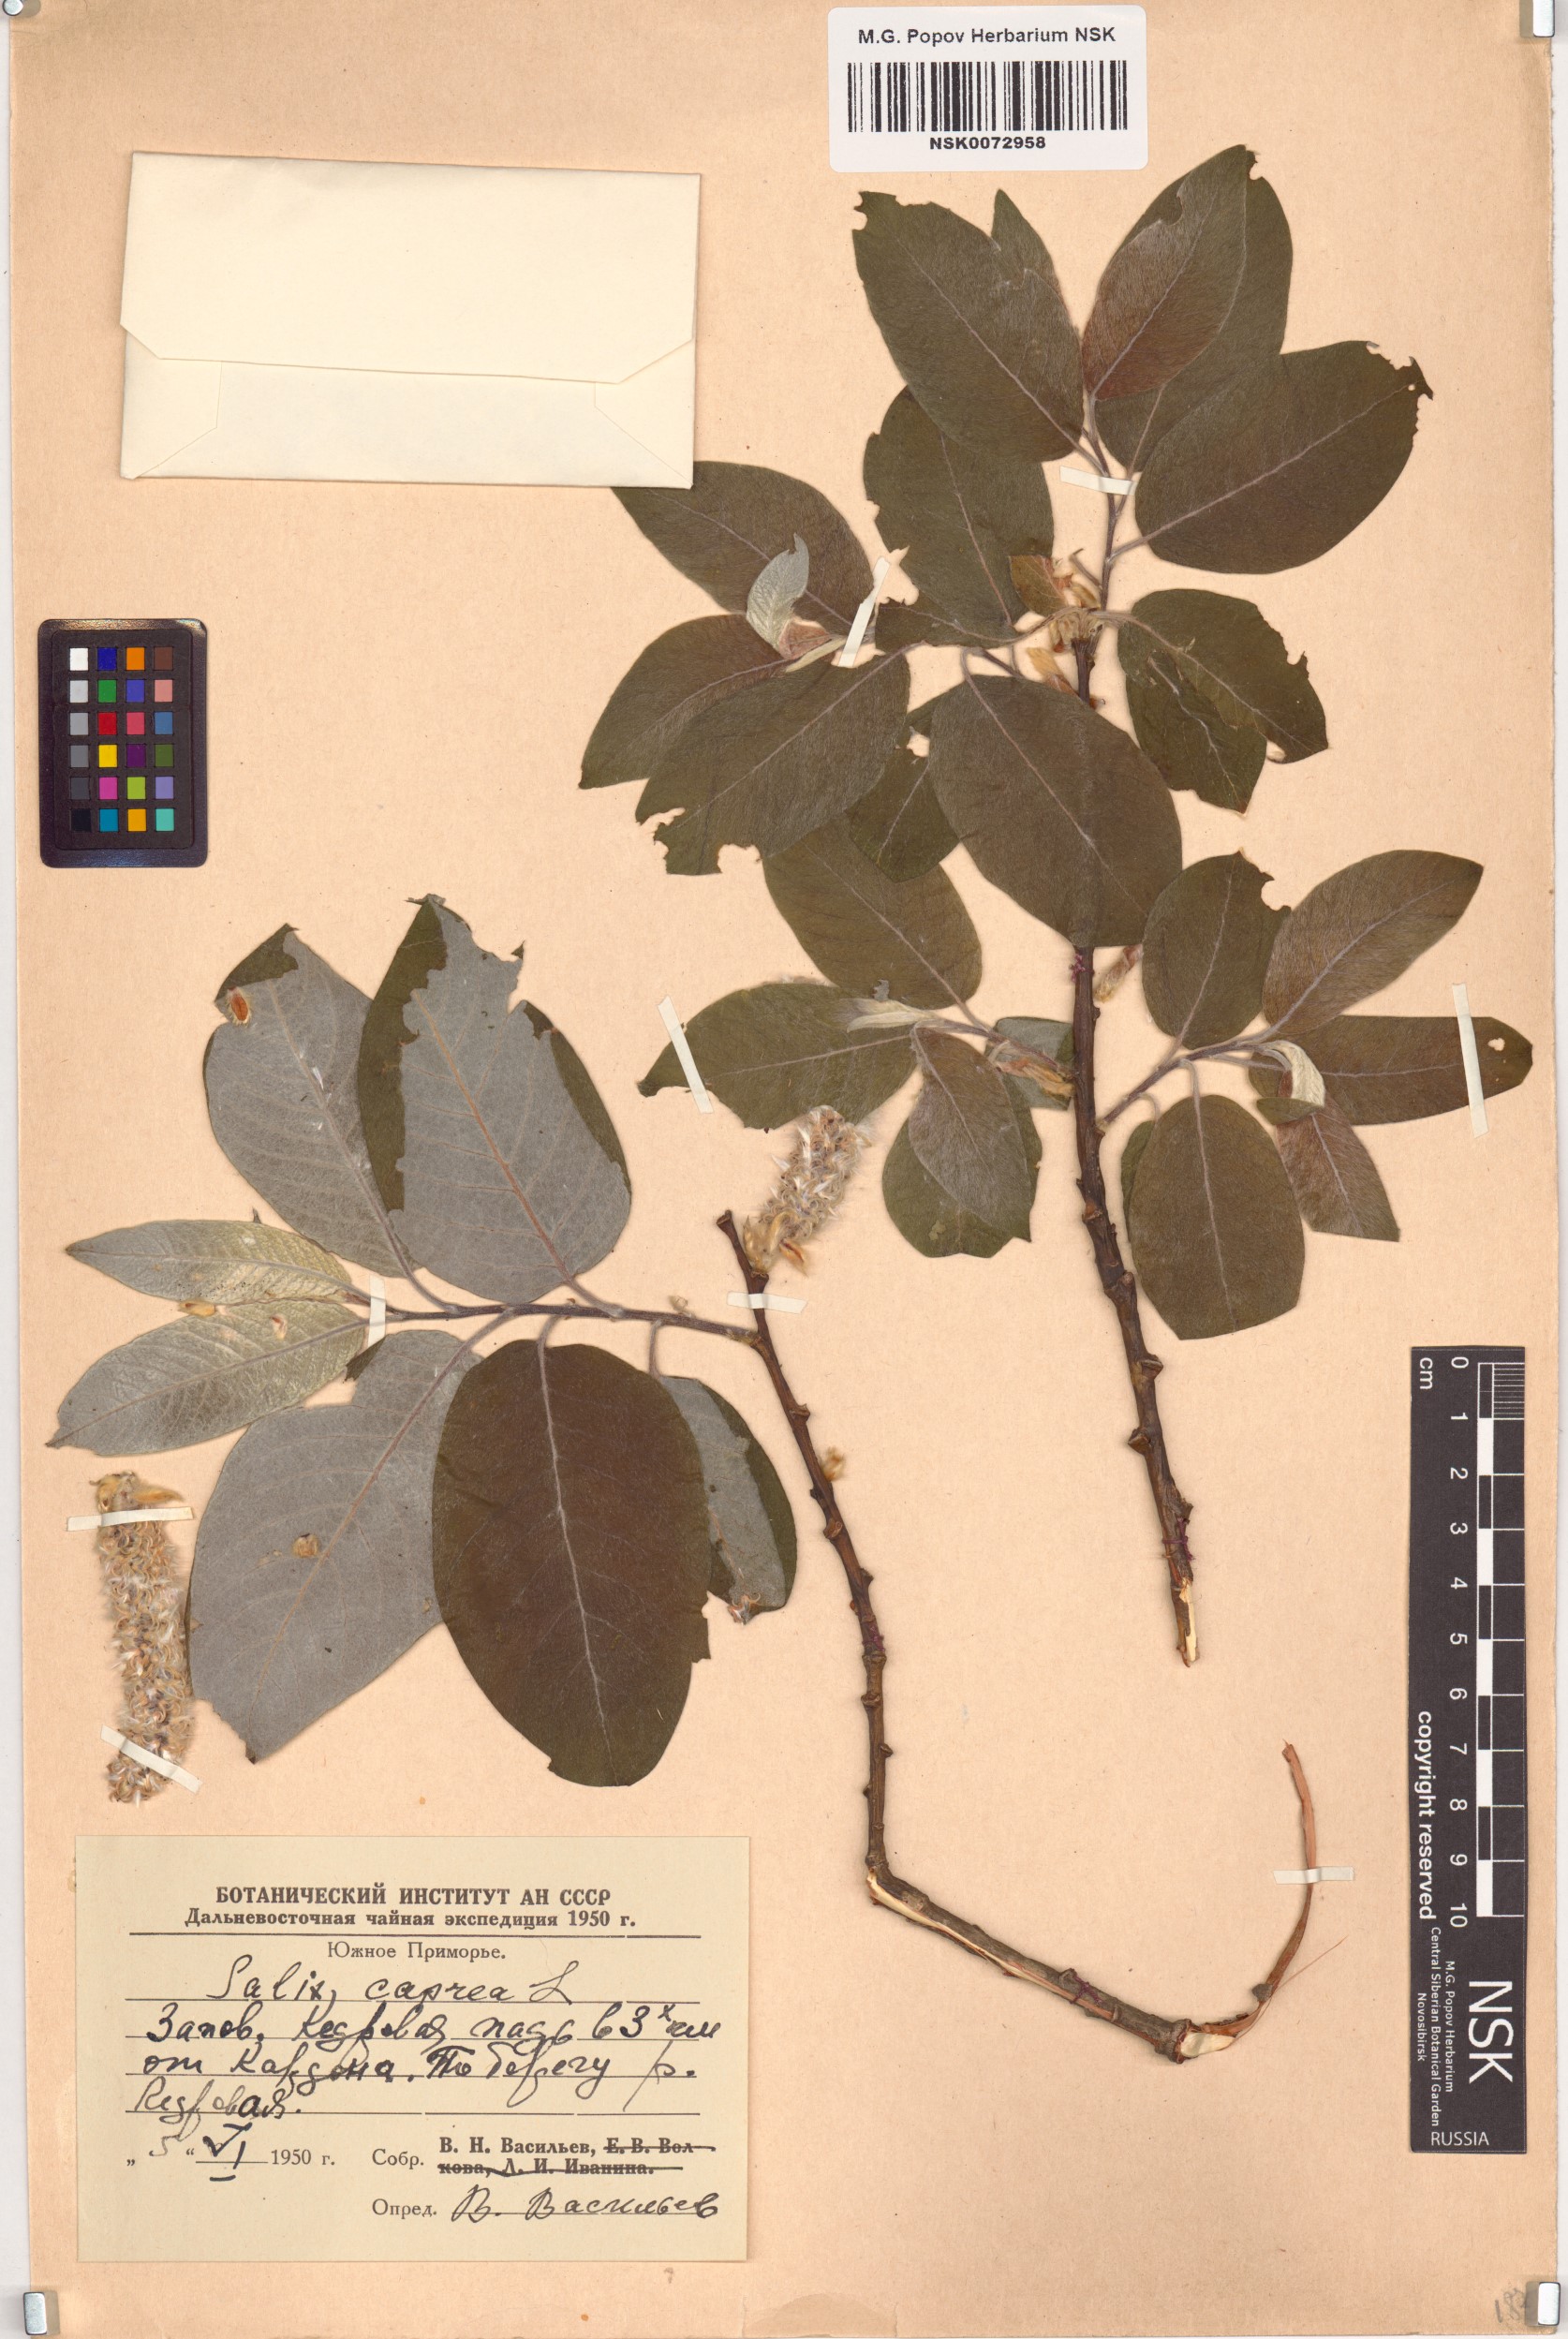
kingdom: Plantae
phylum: Tracheophyta
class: Magnoliopsida
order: Malpighiales
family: Salicaceae
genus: Salix
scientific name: Salix caprea
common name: Goat willow
